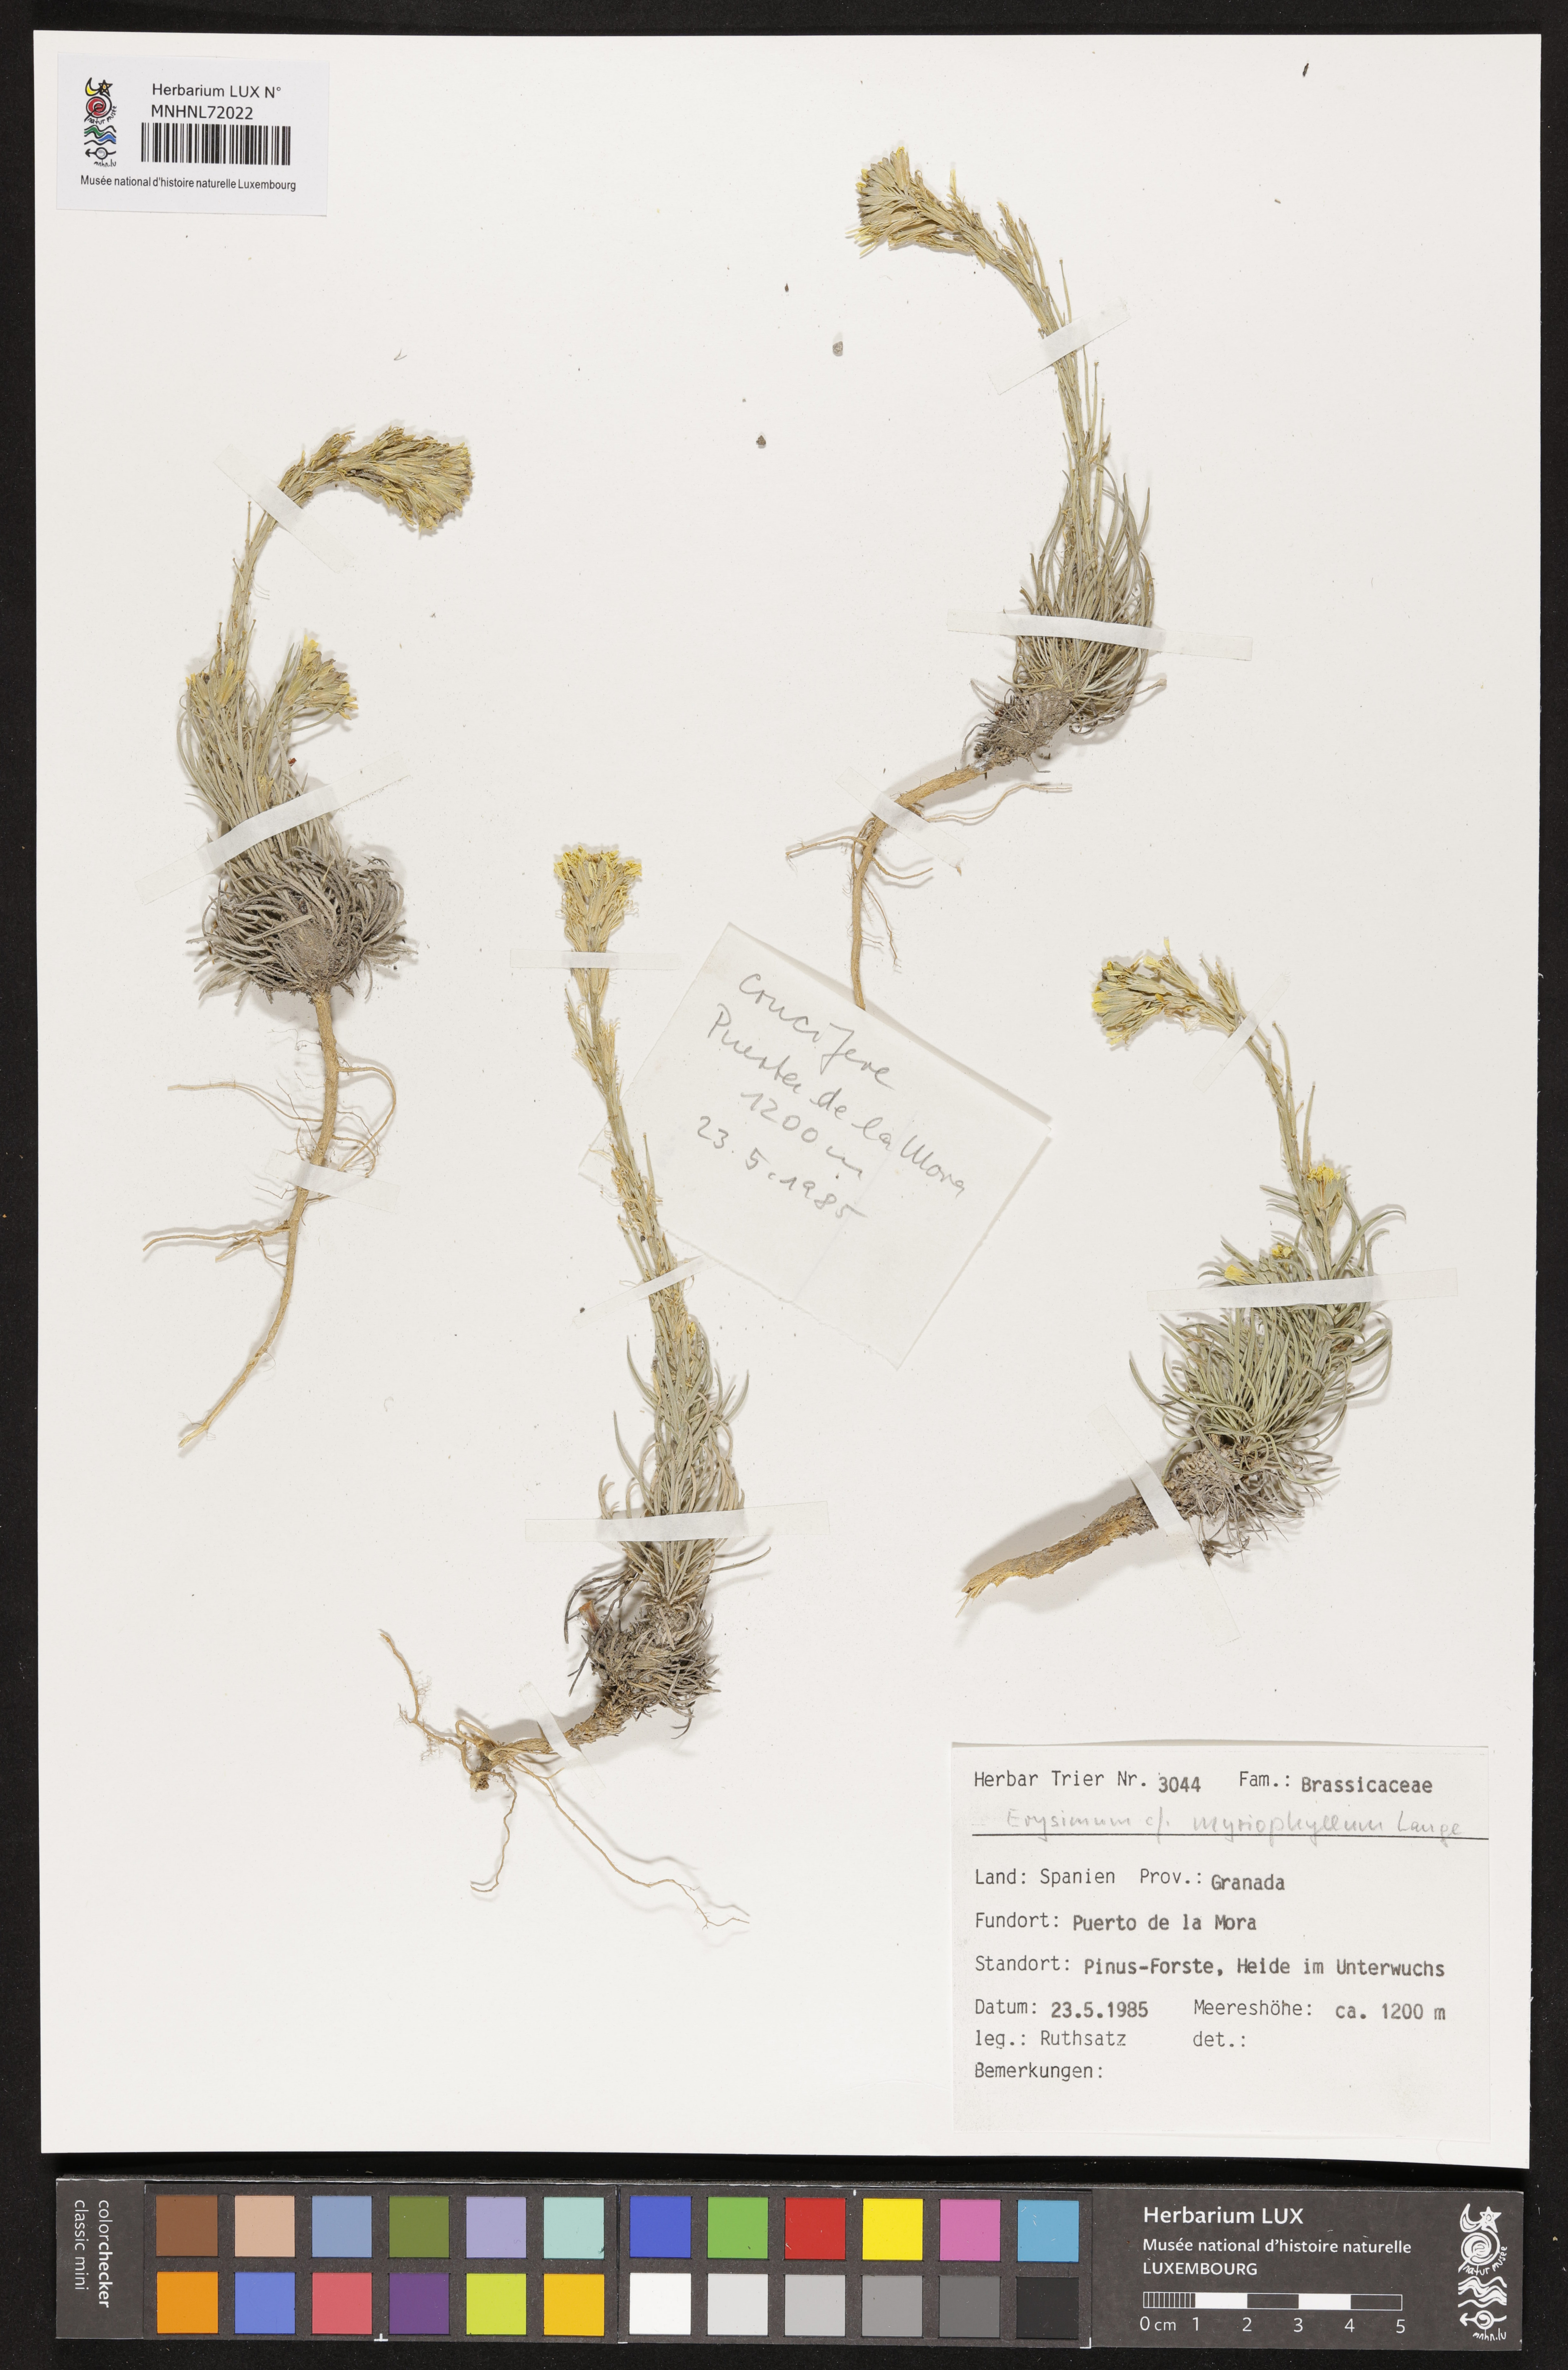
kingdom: Plantae
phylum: Tracheophyta
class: Magnoliopsida
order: Brassicales
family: Brassicaceae
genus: Erysimum
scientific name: Erysimum myriophyllum
